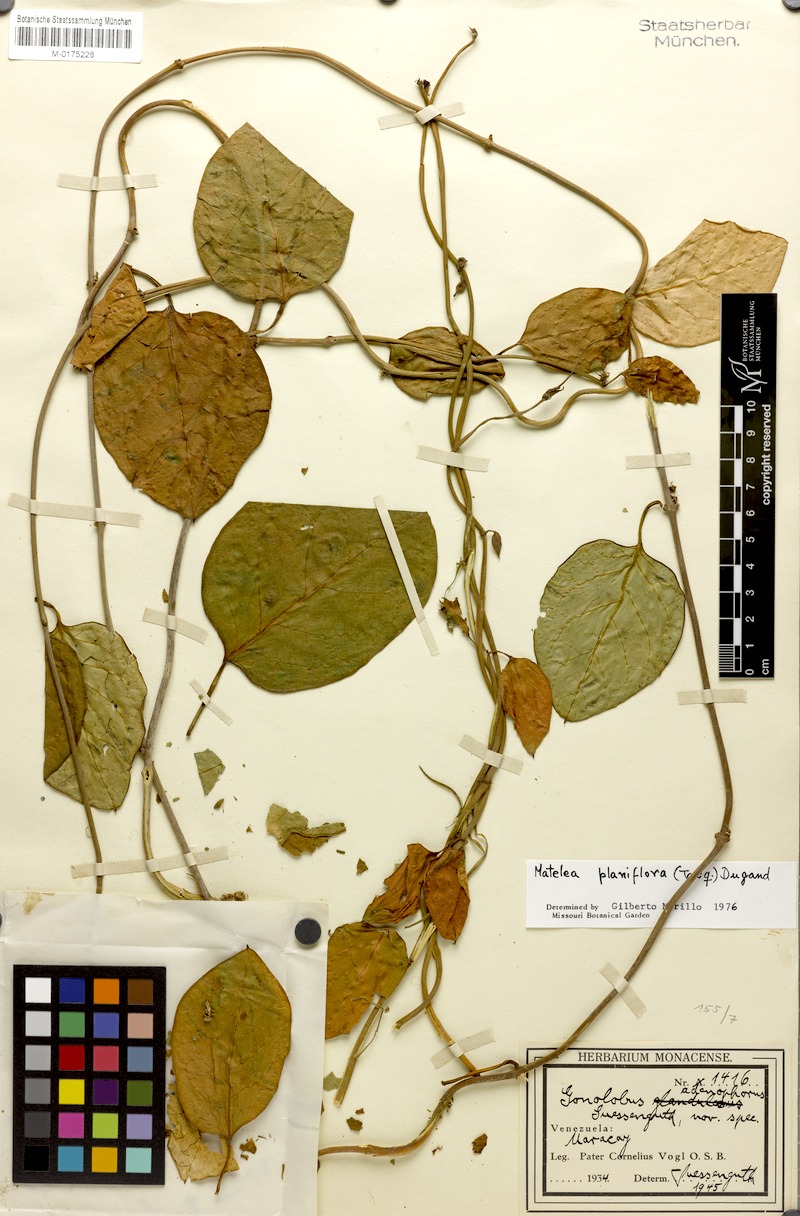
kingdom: Plantae
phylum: Tracheophyta
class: Magnoliopsida
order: Gentianales
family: Apocynaceae
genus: Atrostemma
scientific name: Atrostemma planiflorum
